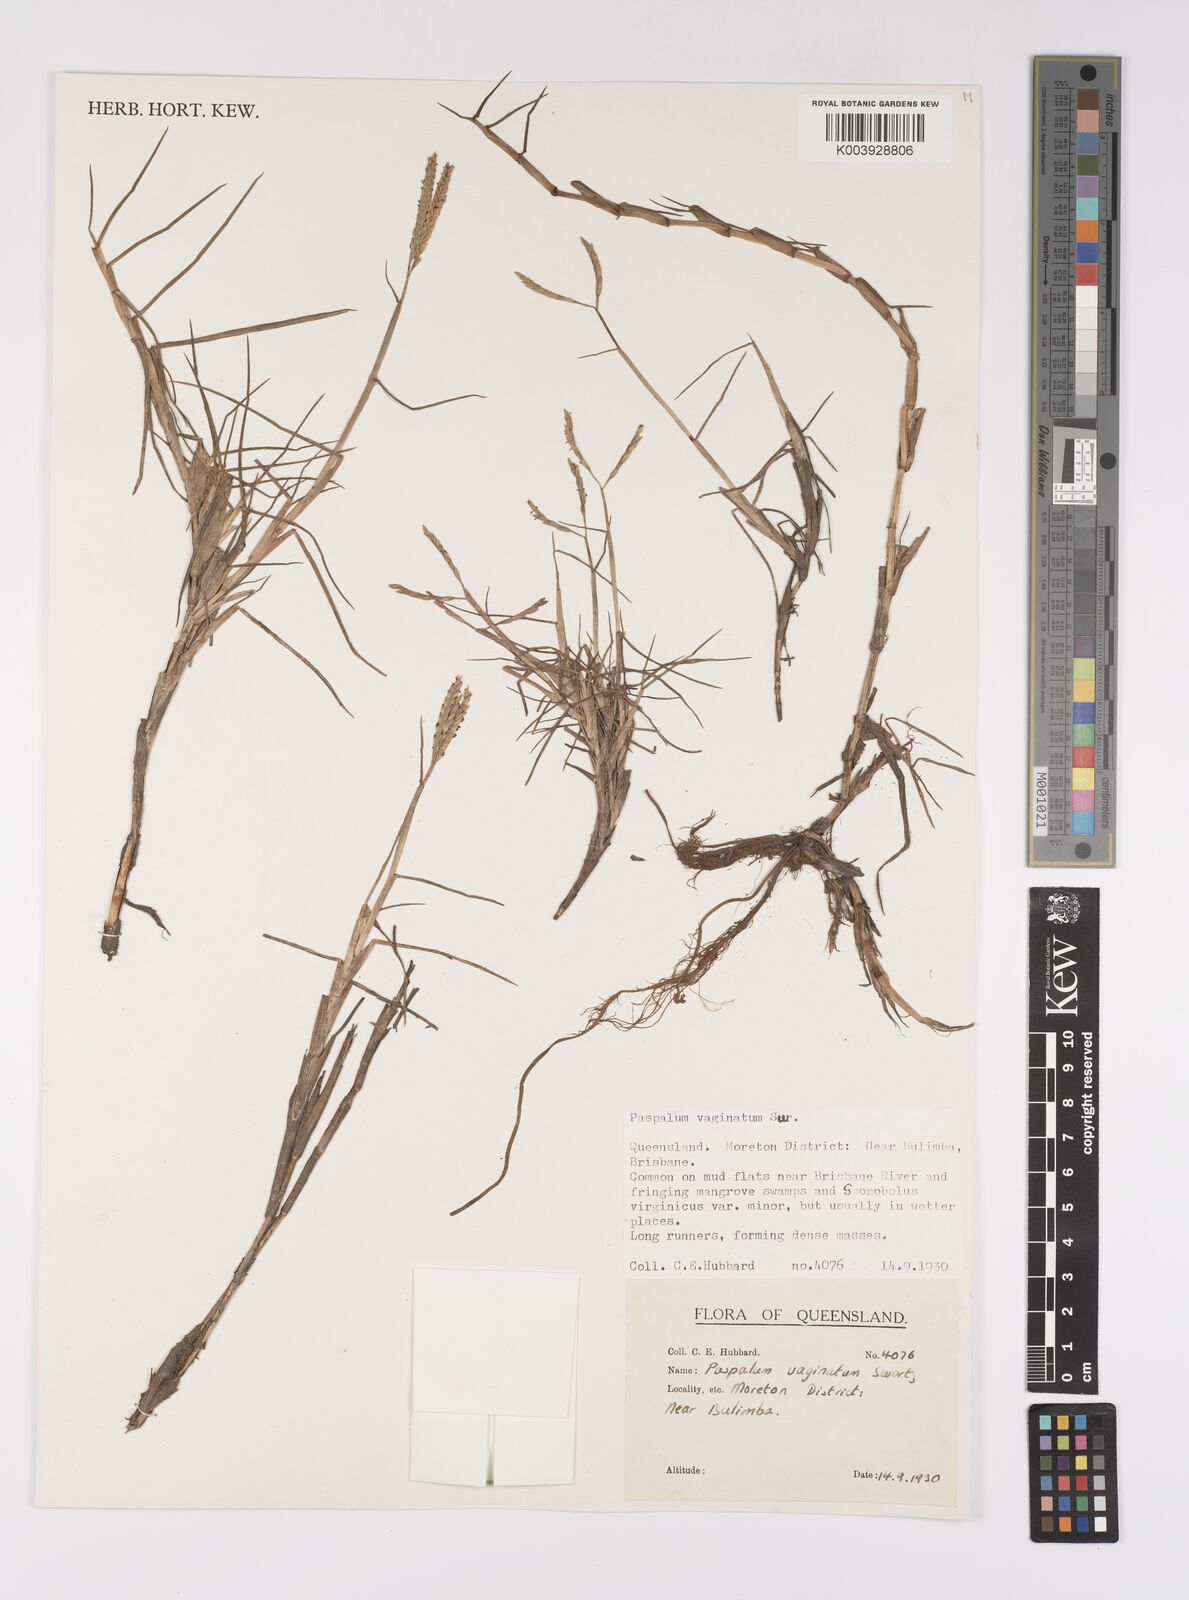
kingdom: Plantae
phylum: Tracheophyta
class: Liliopsida
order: Poales
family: Poaceae
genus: Paspalum
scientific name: Paspalum vaginatum
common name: Seashore paspalum
